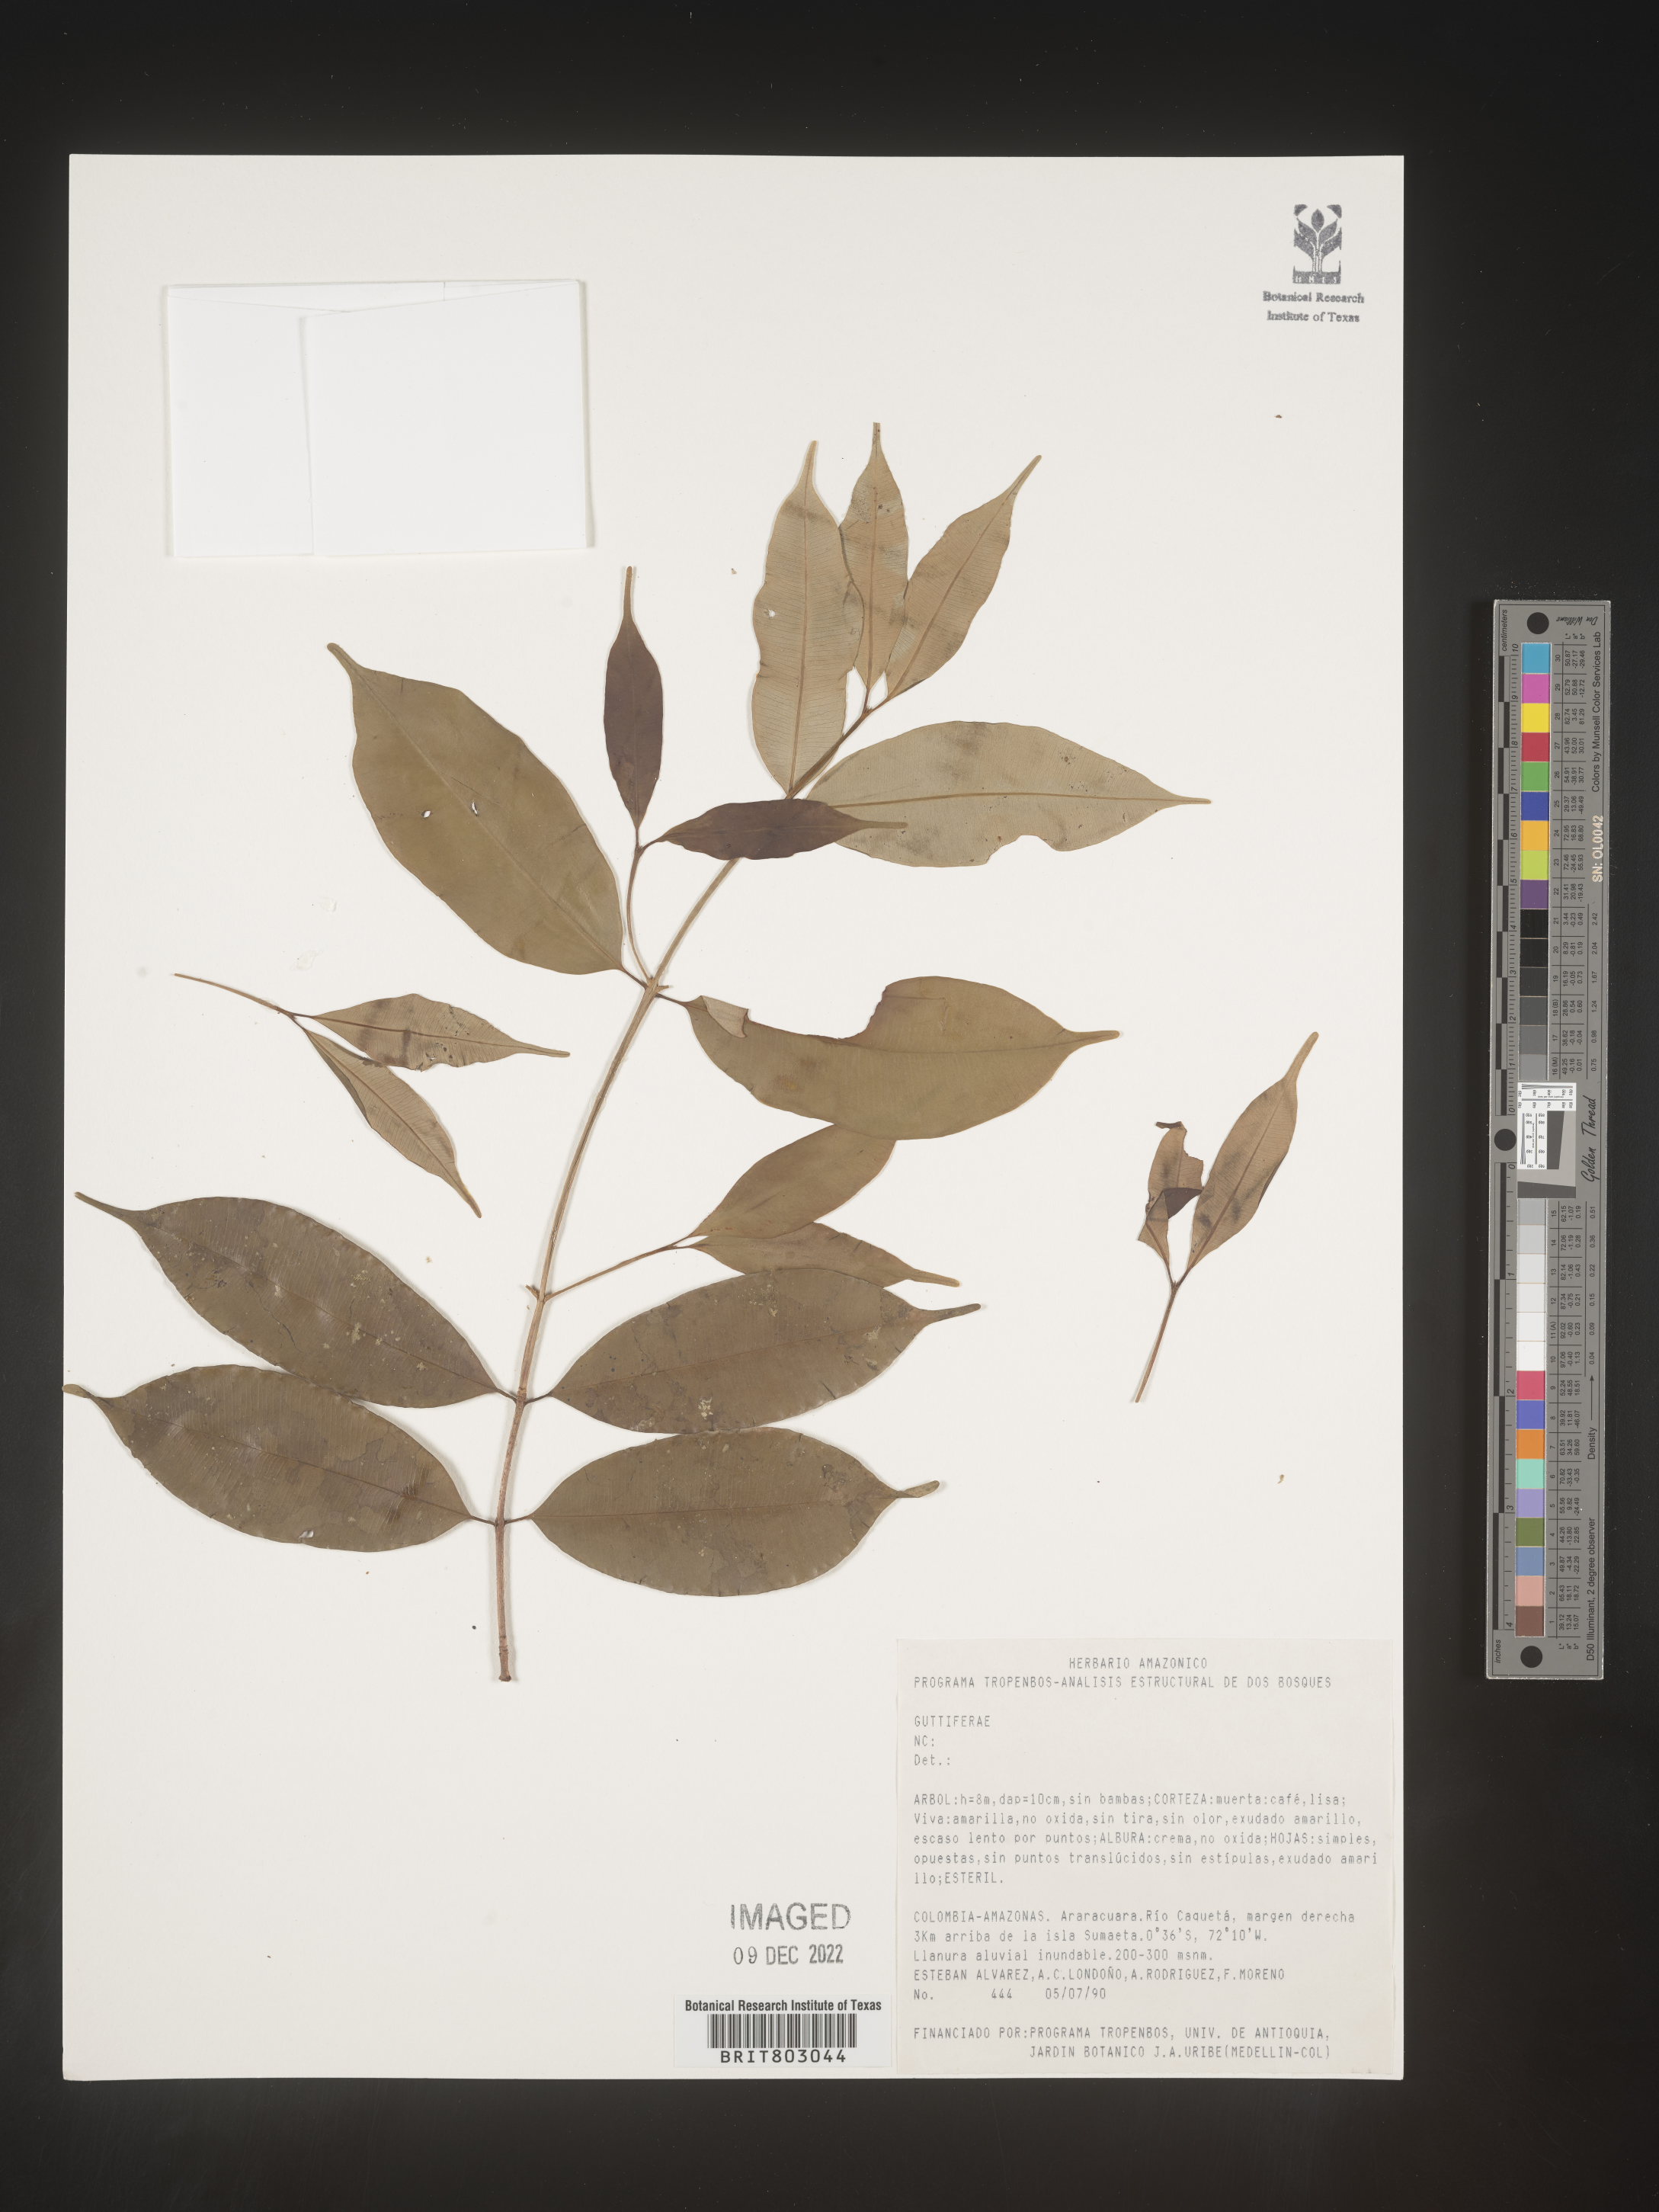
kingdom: Plantae
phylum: Tracheophyta
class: Magnoliopsida
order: Malpighiales
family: Clusiaceae
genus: Symphonia
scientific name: Symphonia
